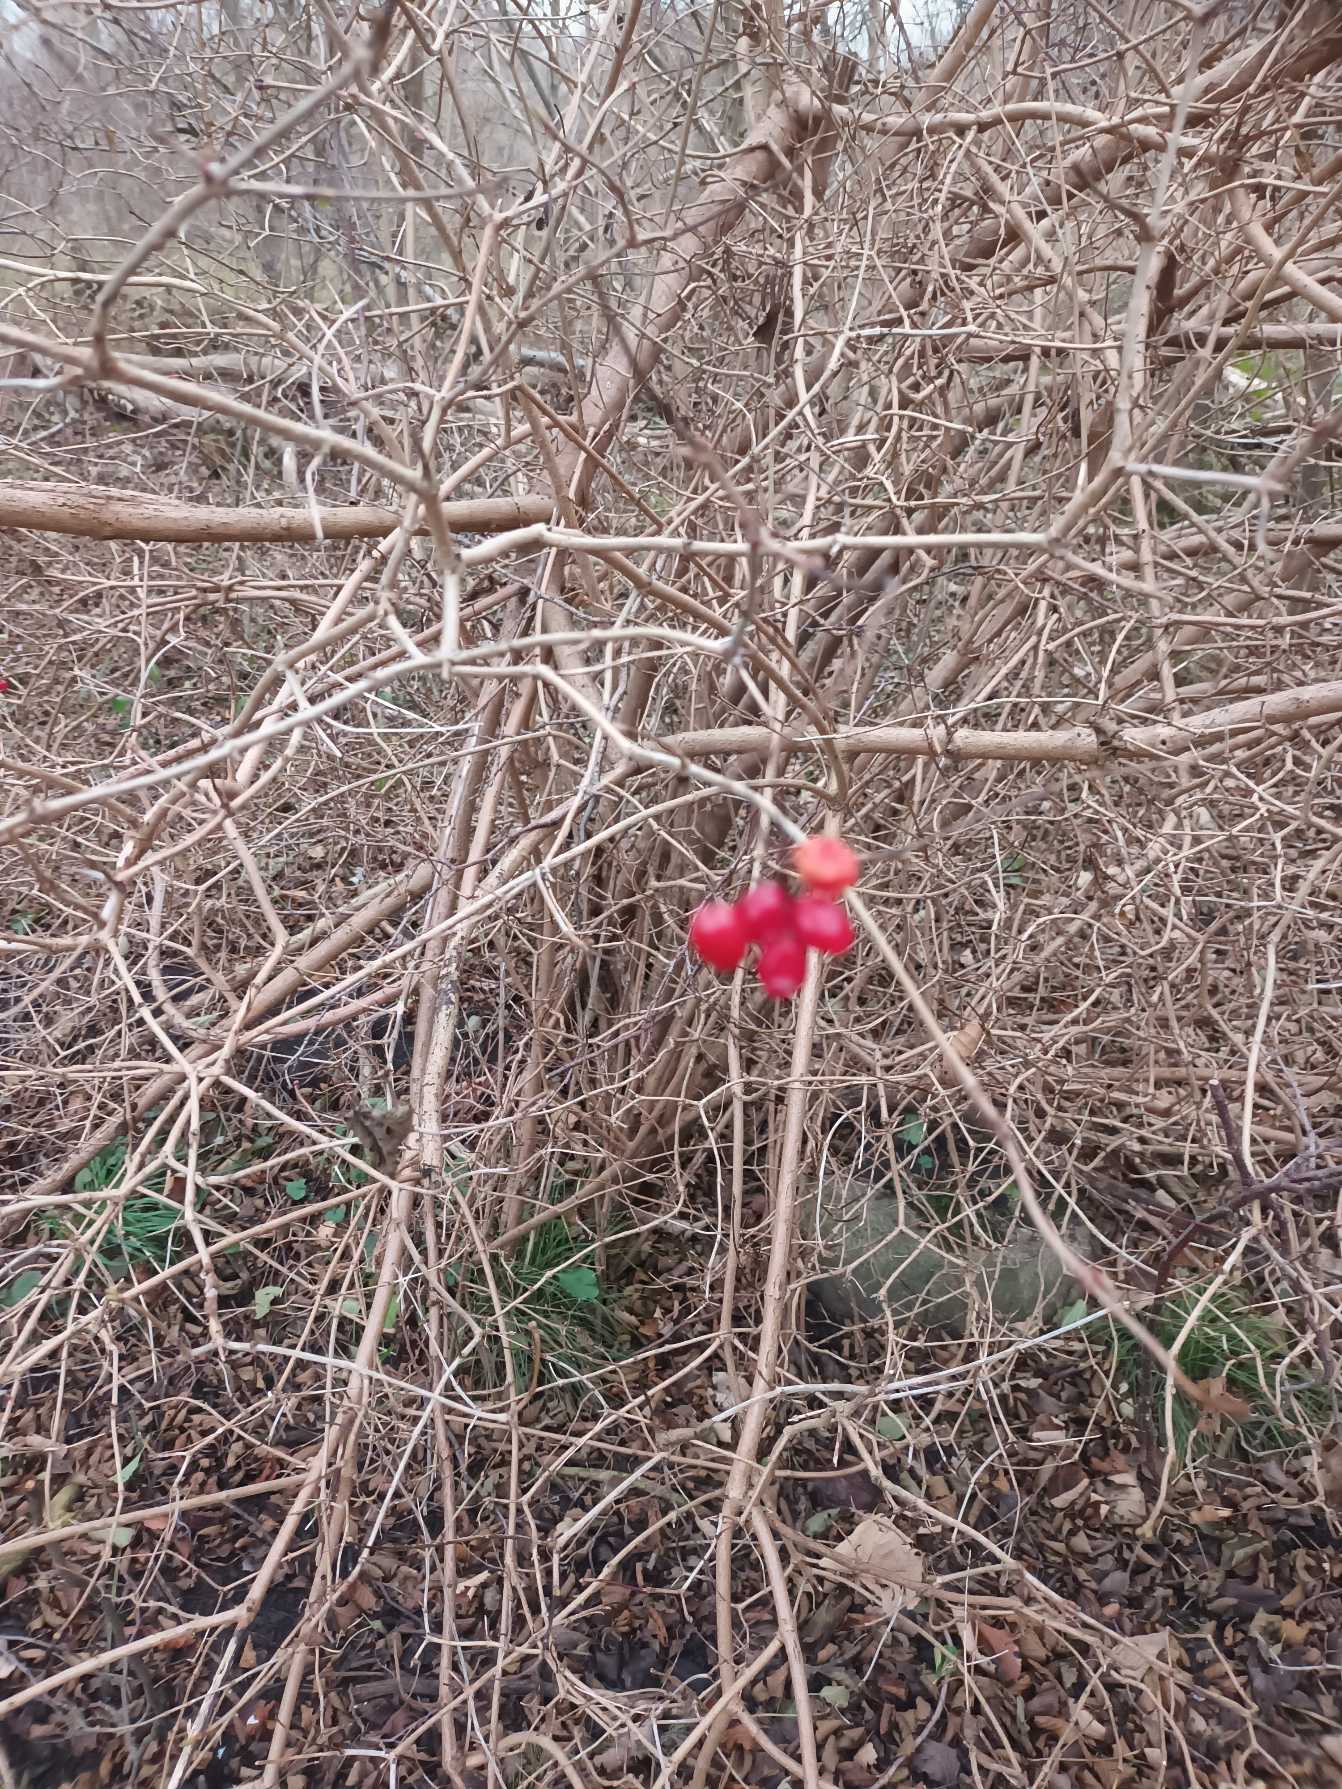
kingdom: Plantae
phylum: Tracheophyta
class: Magnoliopsida
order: Dipsacales
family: Viburnaceae
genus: Viburnum
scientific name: Viburnum opulus
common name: Kvalkved
